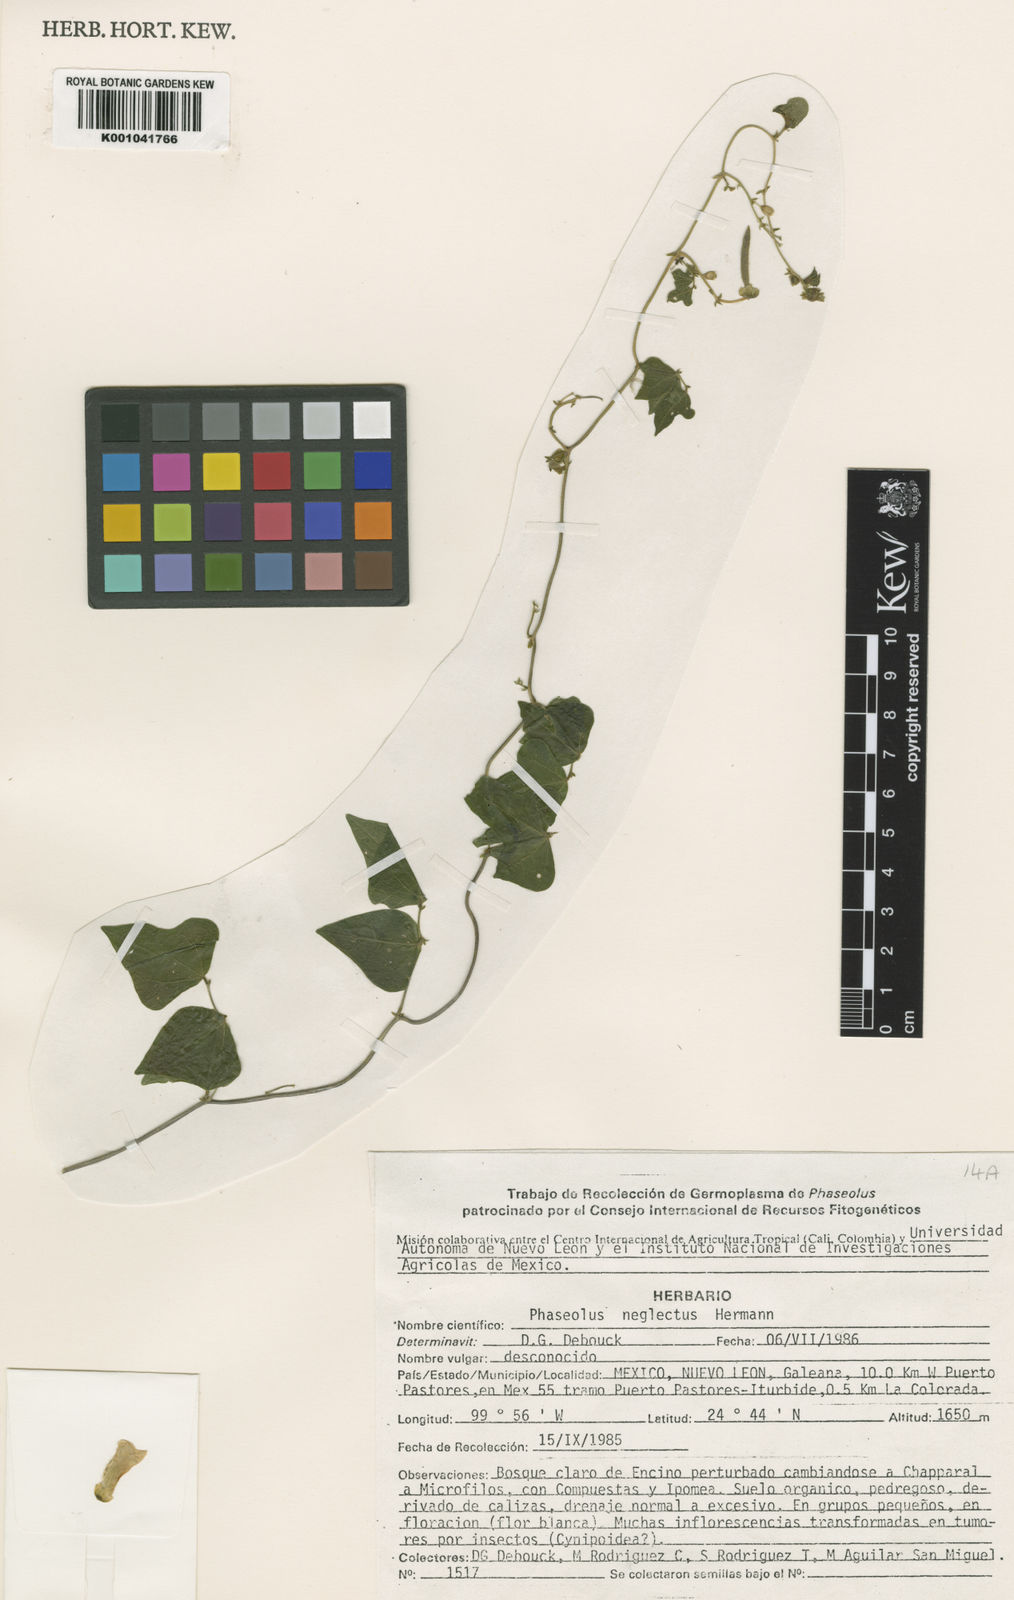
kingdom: Plantae
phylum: Tracheophyta
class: Magnoliopsida
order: Fabales
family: Fabaceae
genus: Phaseolus
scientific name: Phaseolus albiflorus
